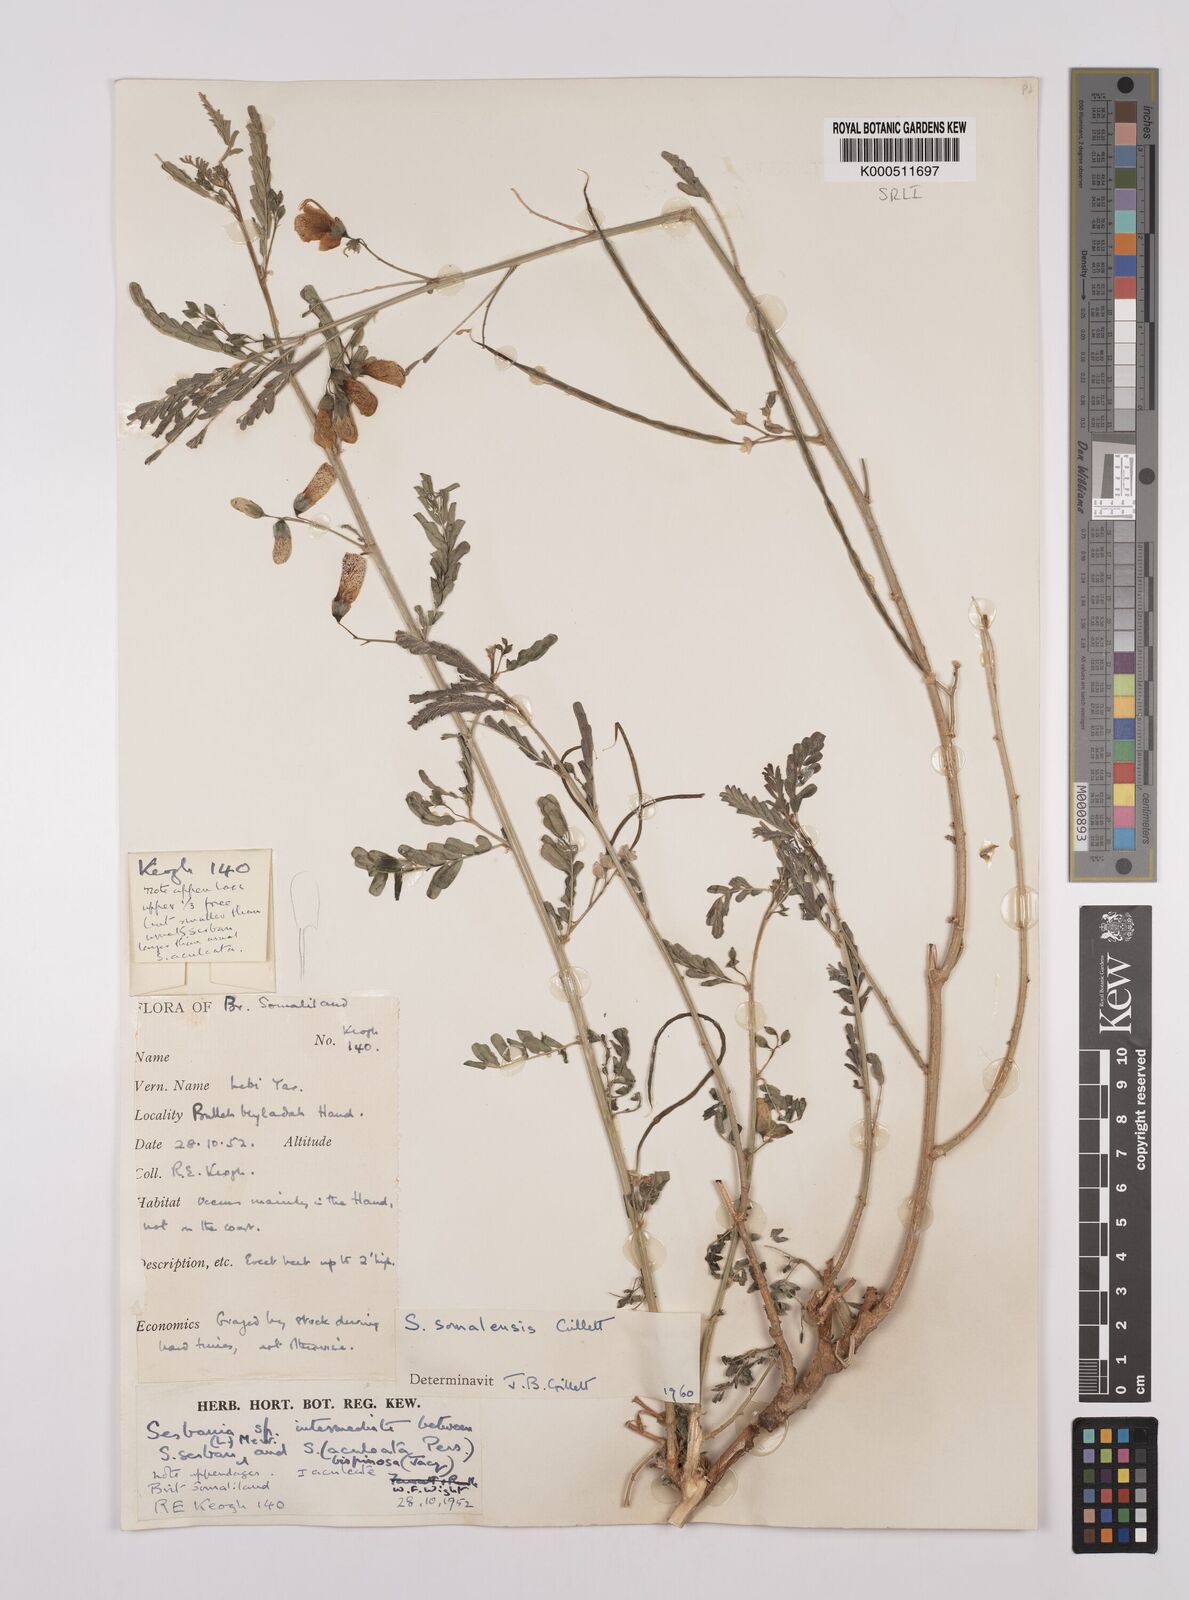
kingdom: Plantae
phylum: Tracheophyta
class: Magnoliopsida
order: Fabales
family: Fabaceae
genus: Sesbania
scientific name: Sesbania somalensis
